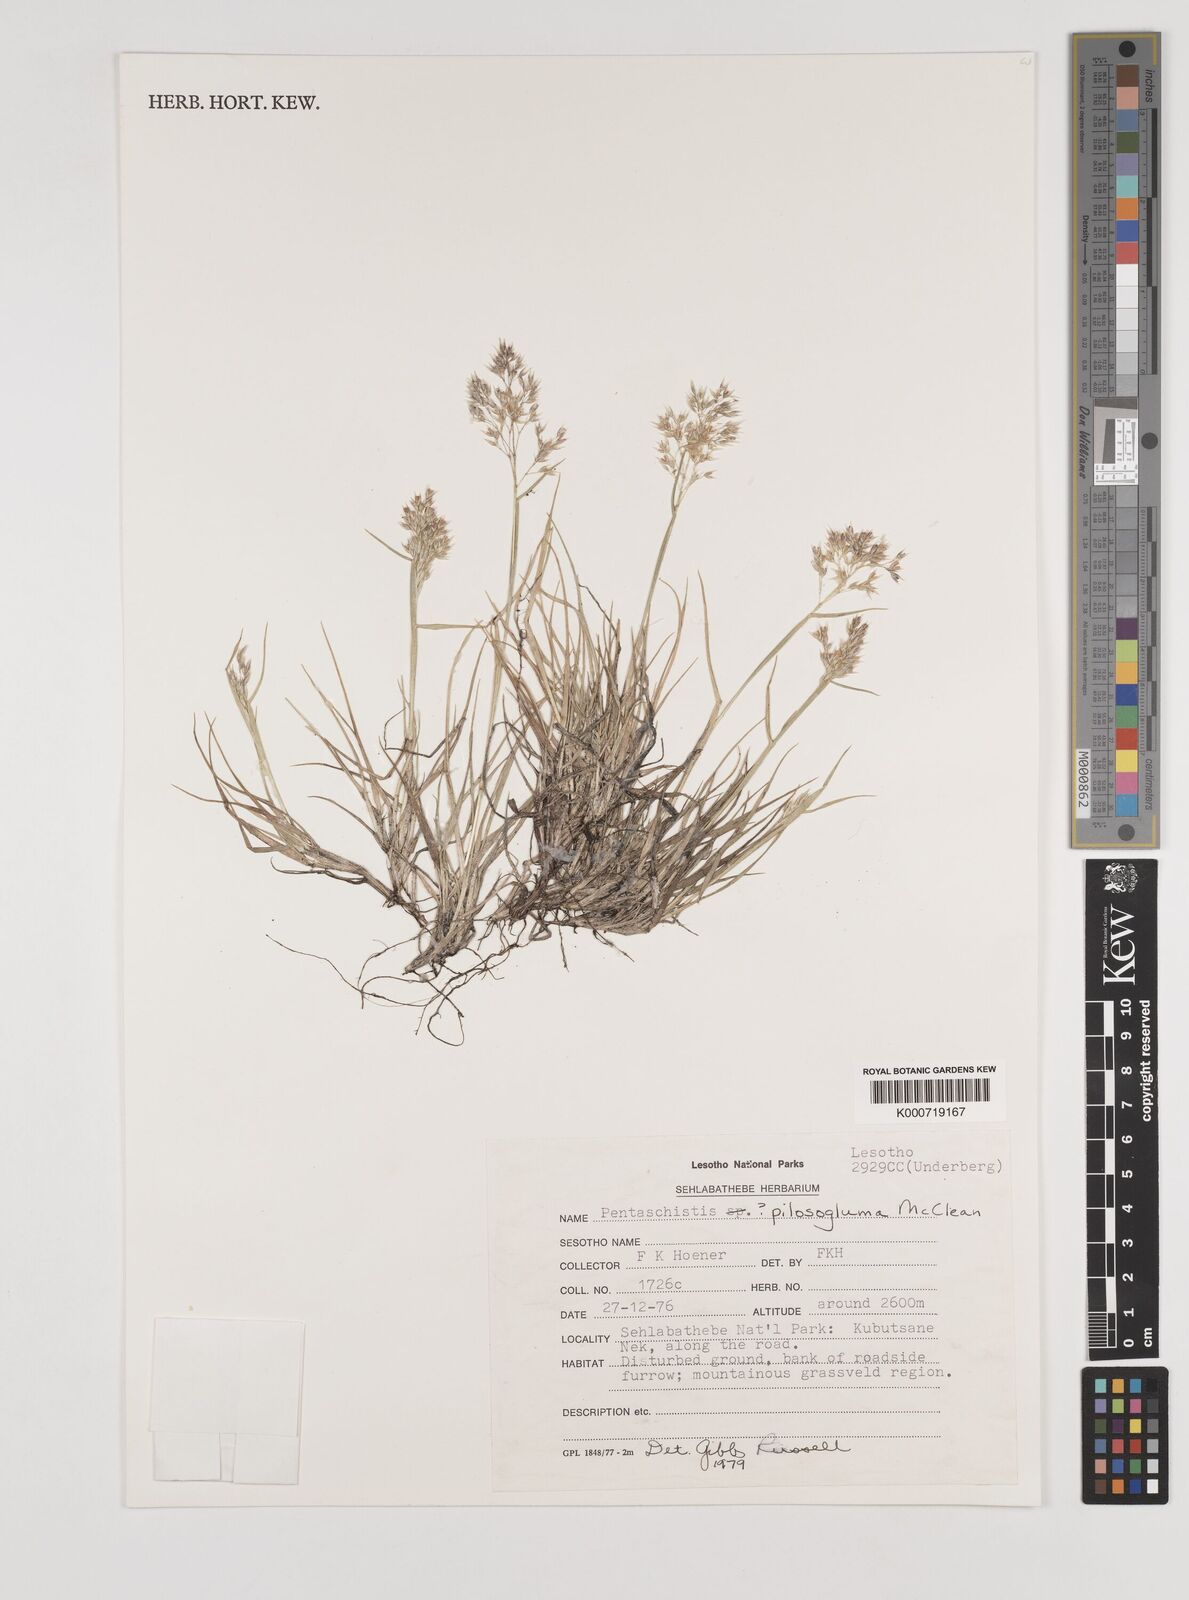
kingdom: Plantae
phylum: Tracheophyta
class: Liliopsida
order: Poales
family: Poaceae
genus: Pentameris
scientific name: Pentameris galpinii
